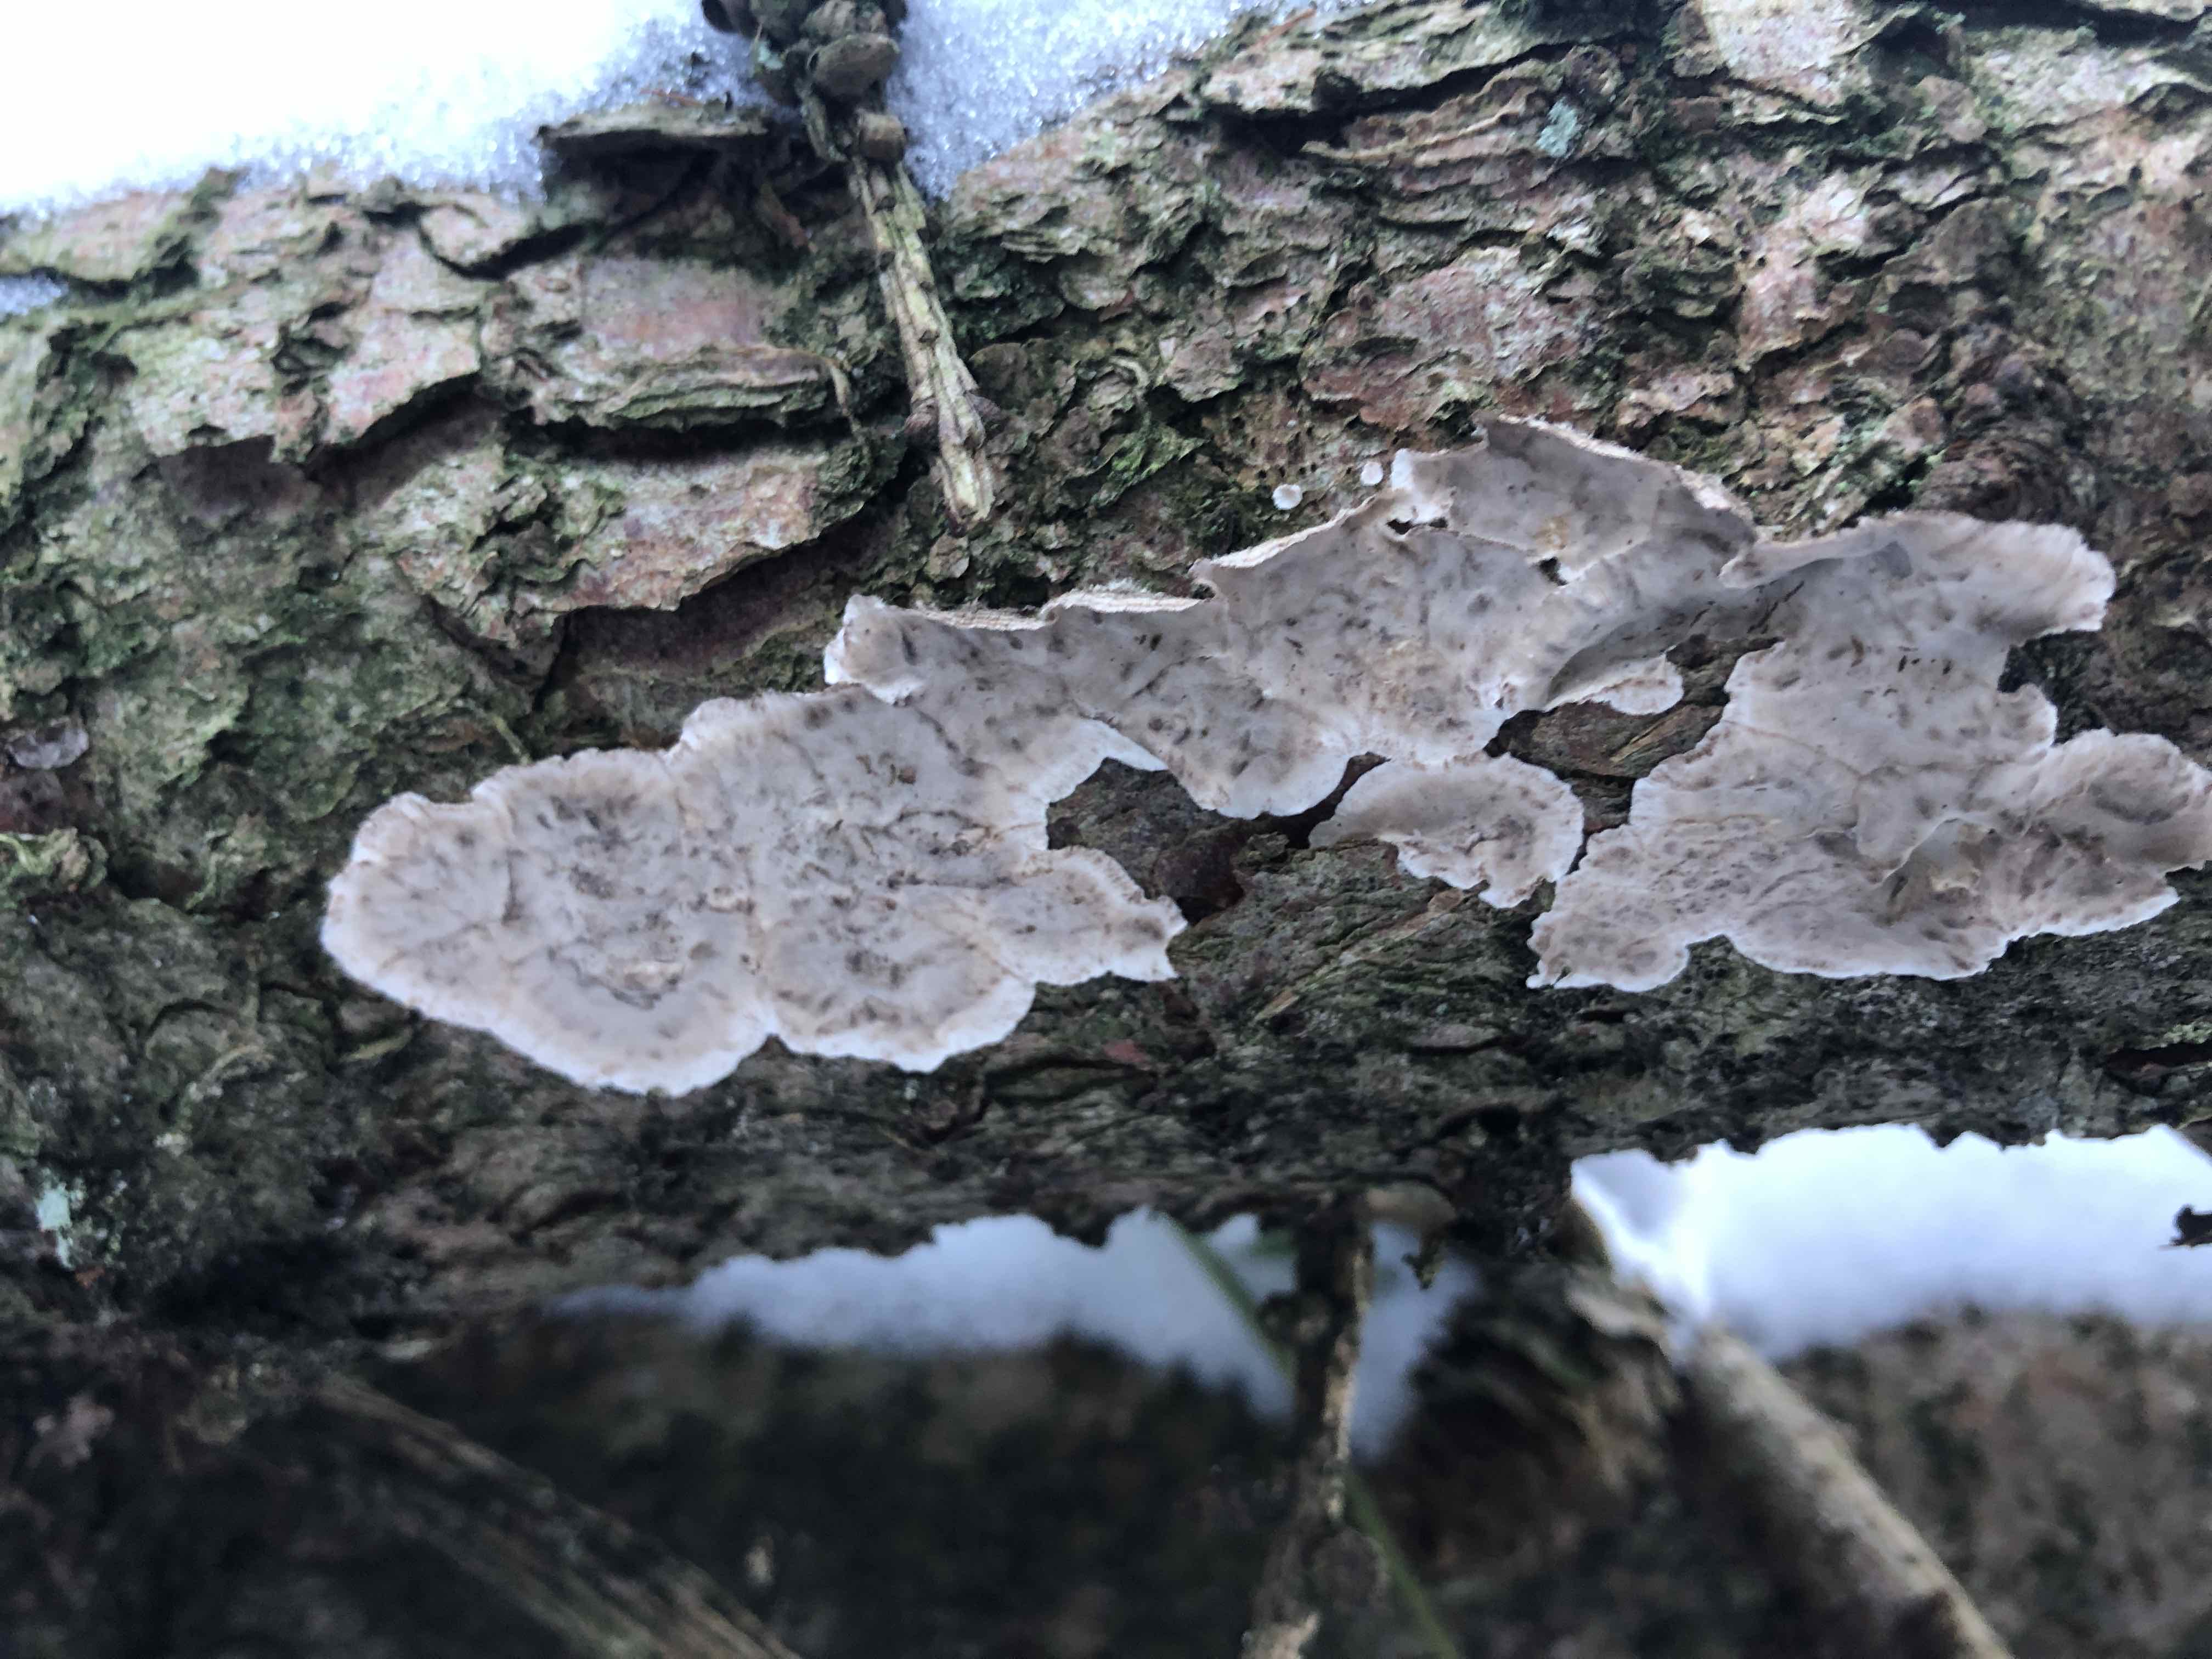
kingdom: Fungi
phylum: Basidiomycota
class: Agaricomycetes
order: Russulales
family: Stereaceae
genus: Stereum
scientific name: Stereum sanguinolentum
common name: blødende lædersvamp
